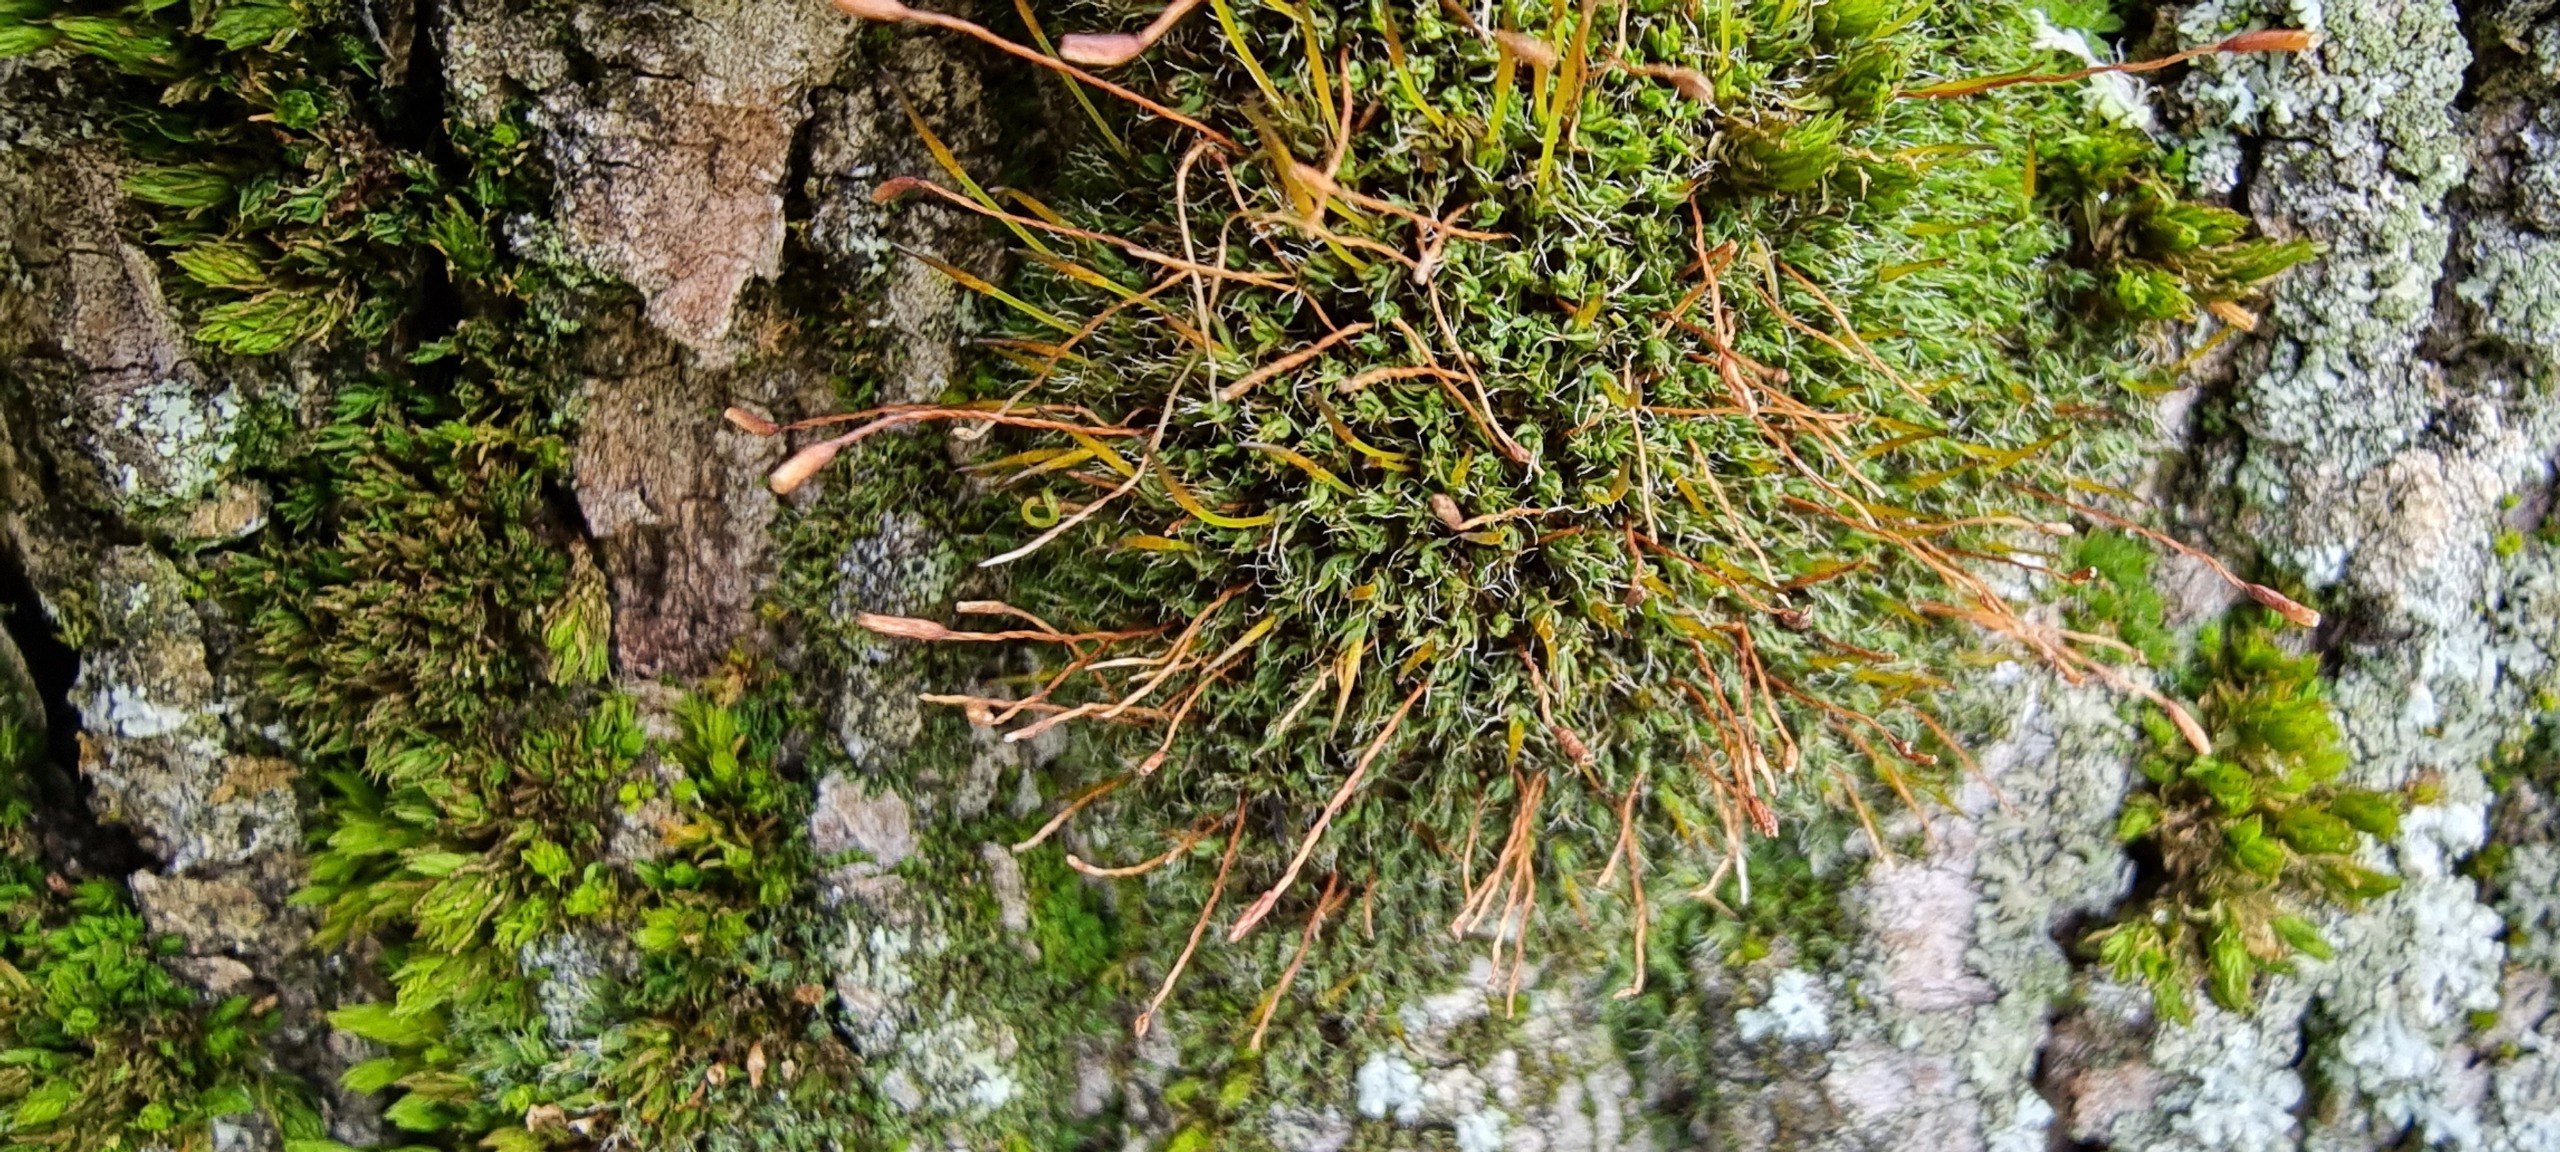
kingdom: Plantae
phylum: Bryophyta
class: Bryopsida
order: Pottiales
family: Pottiaceae
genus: Tortula
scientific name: Tortula muralis
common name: Mur-snotand
